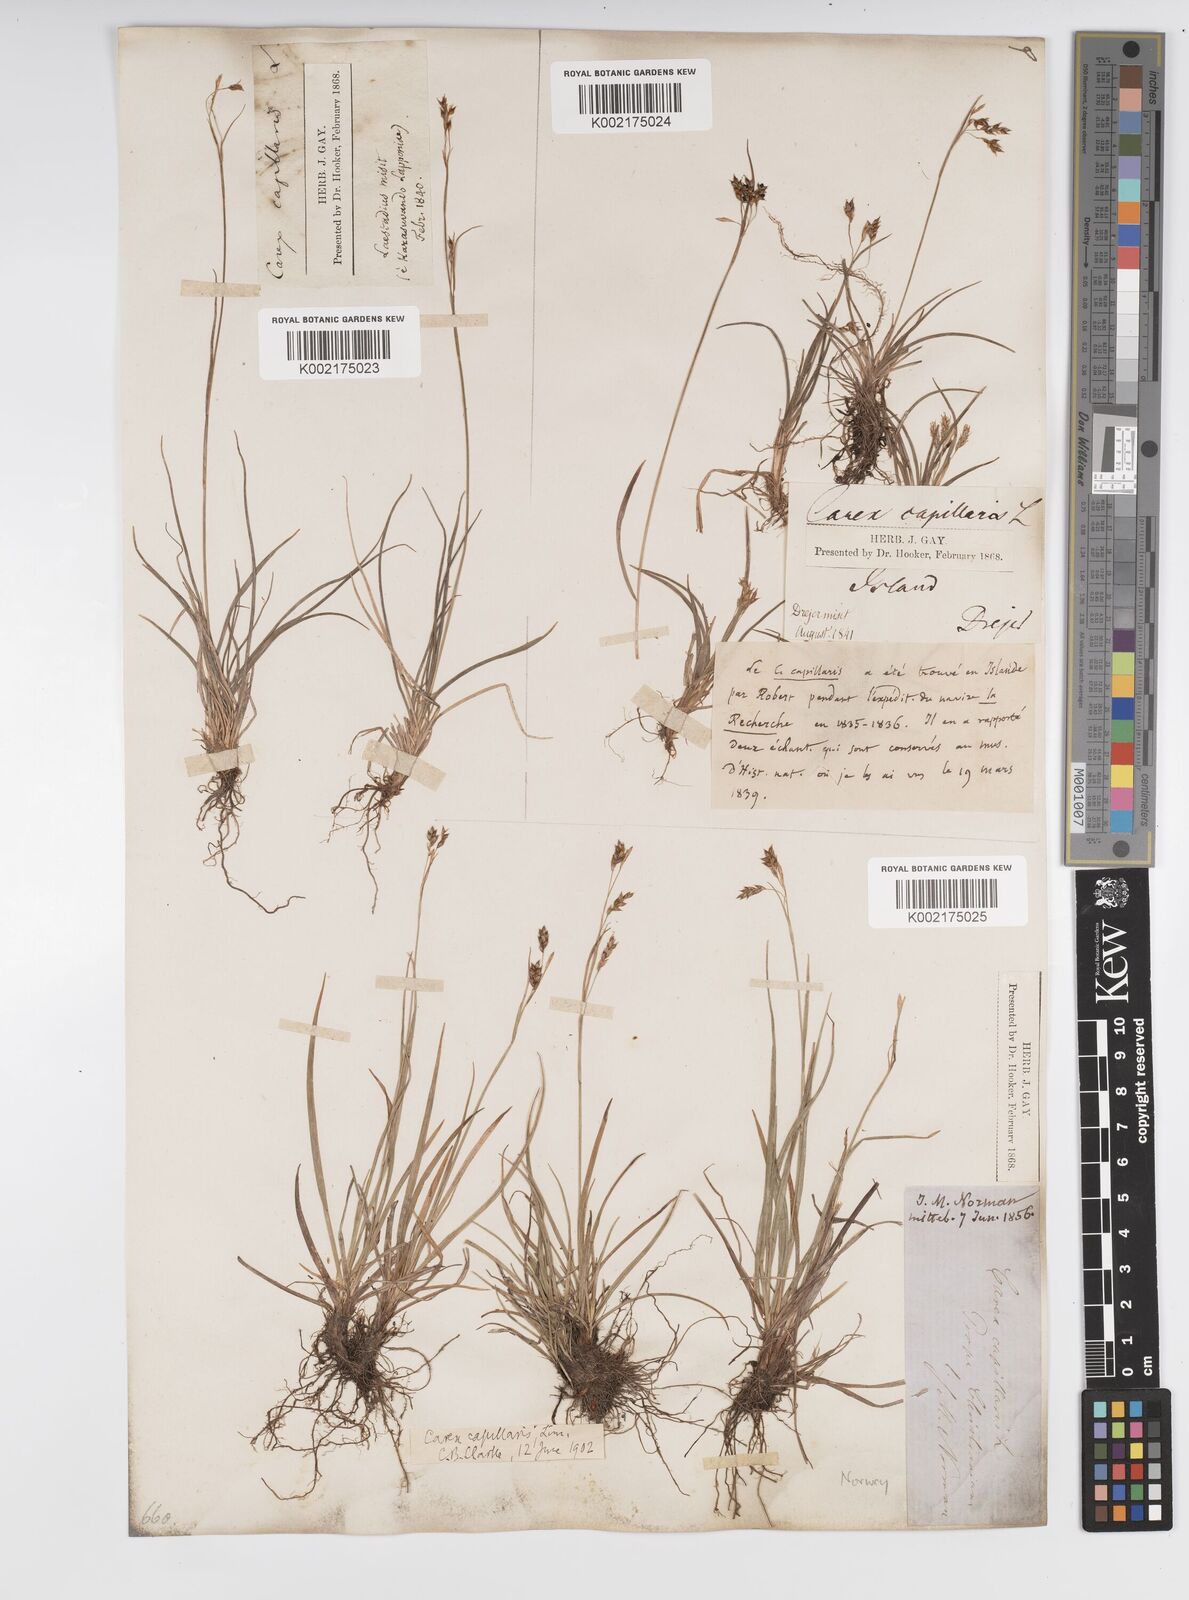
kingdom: Plantae
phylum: Tracheophyta
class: Liliopsida
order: Poales
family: Cyperaceae
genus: Carex
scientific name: Carex capillaris
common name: Hair sedge
